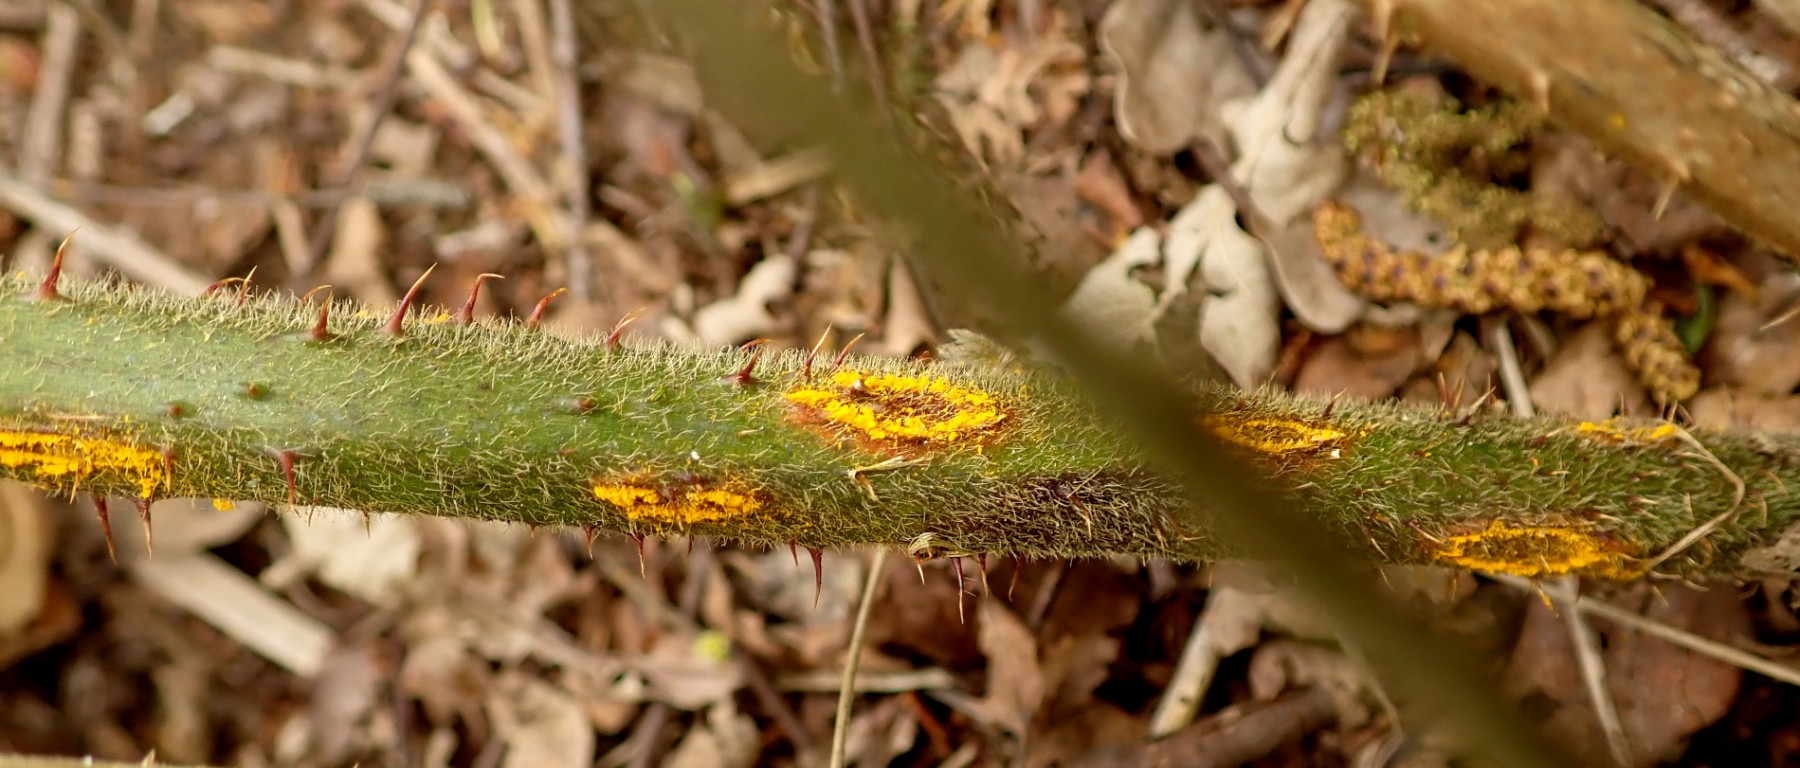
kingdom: Fungi
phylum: Basidiomycota
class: Pucciniomycetes
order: Pucciniales
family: Phragmidiaceae
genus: Kuehneola
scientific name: Kuehneola uredinis
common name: klynger-kædecellerust
